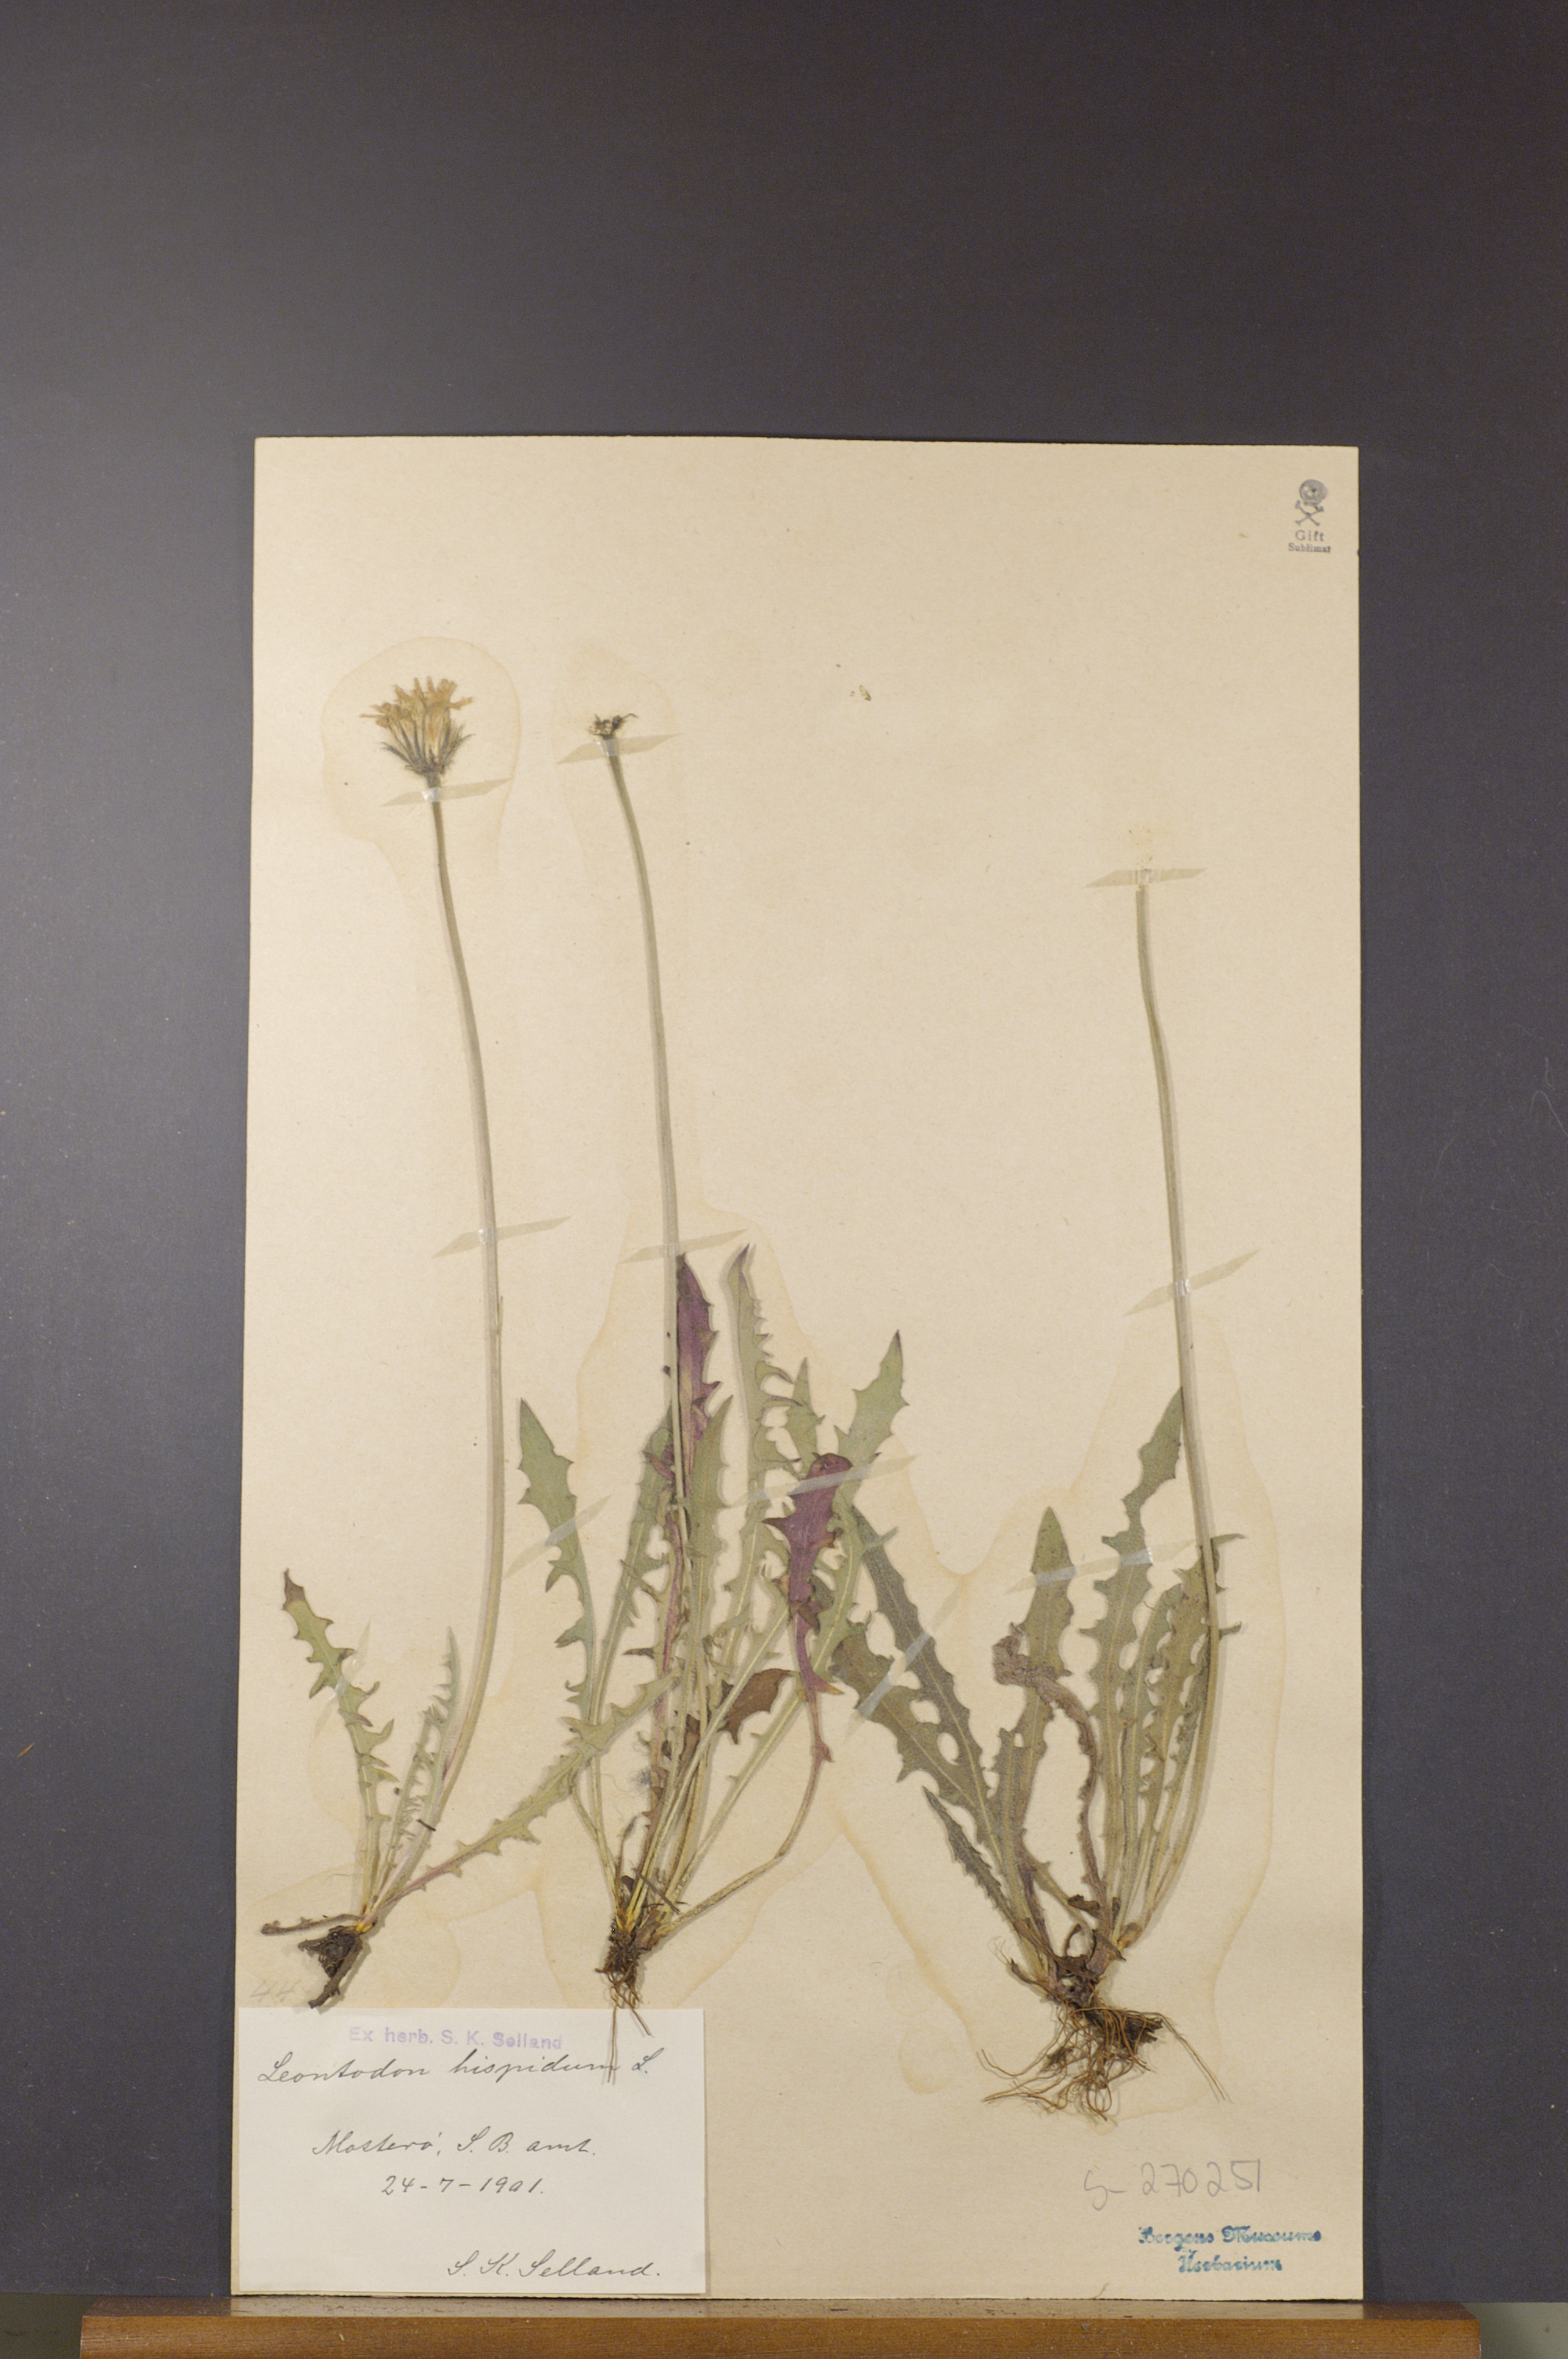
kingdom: Plantae
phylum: Tracheophyta
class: Magnoliopsida
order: Asterales
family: Asteraceae
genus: Leontodon
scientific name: Leontodon hispidus
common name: Rough hawkbit
